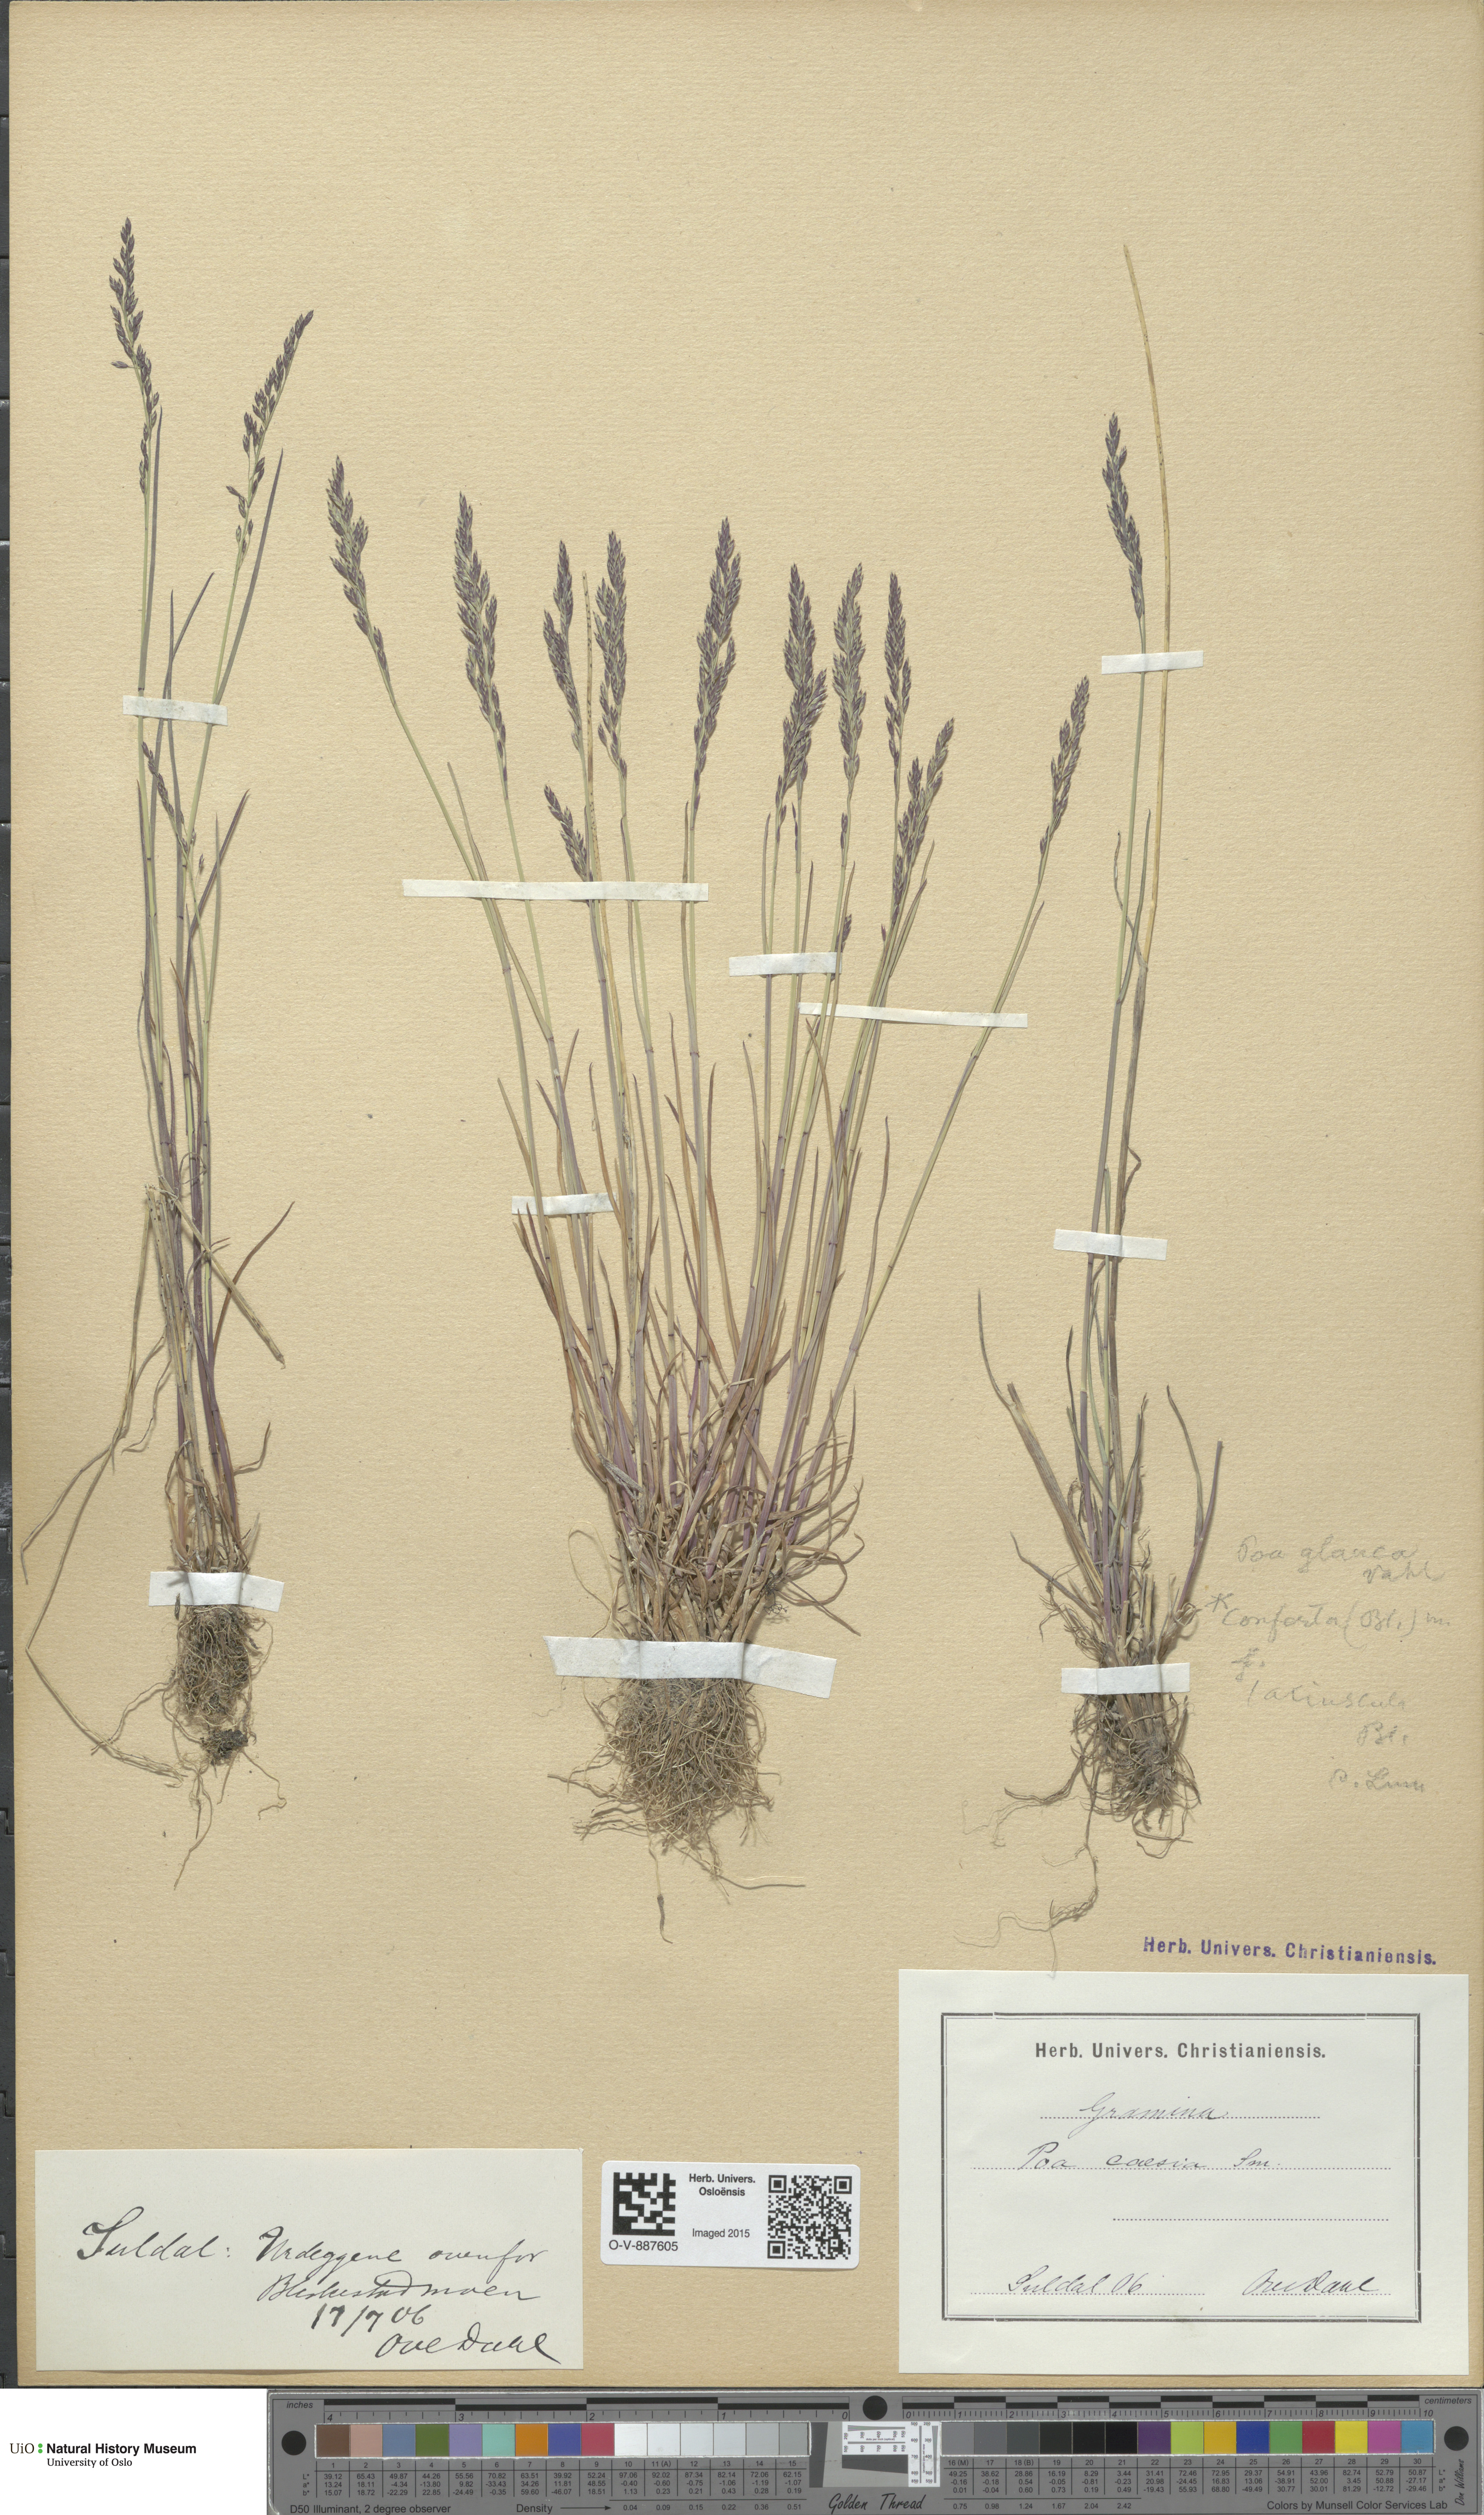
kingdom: Plantae
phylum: Tracheophyta
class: Liliopsida
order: Poales
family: Poaceae
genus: Poa
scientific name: Poa glauca
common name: Glaucous bluegrass
